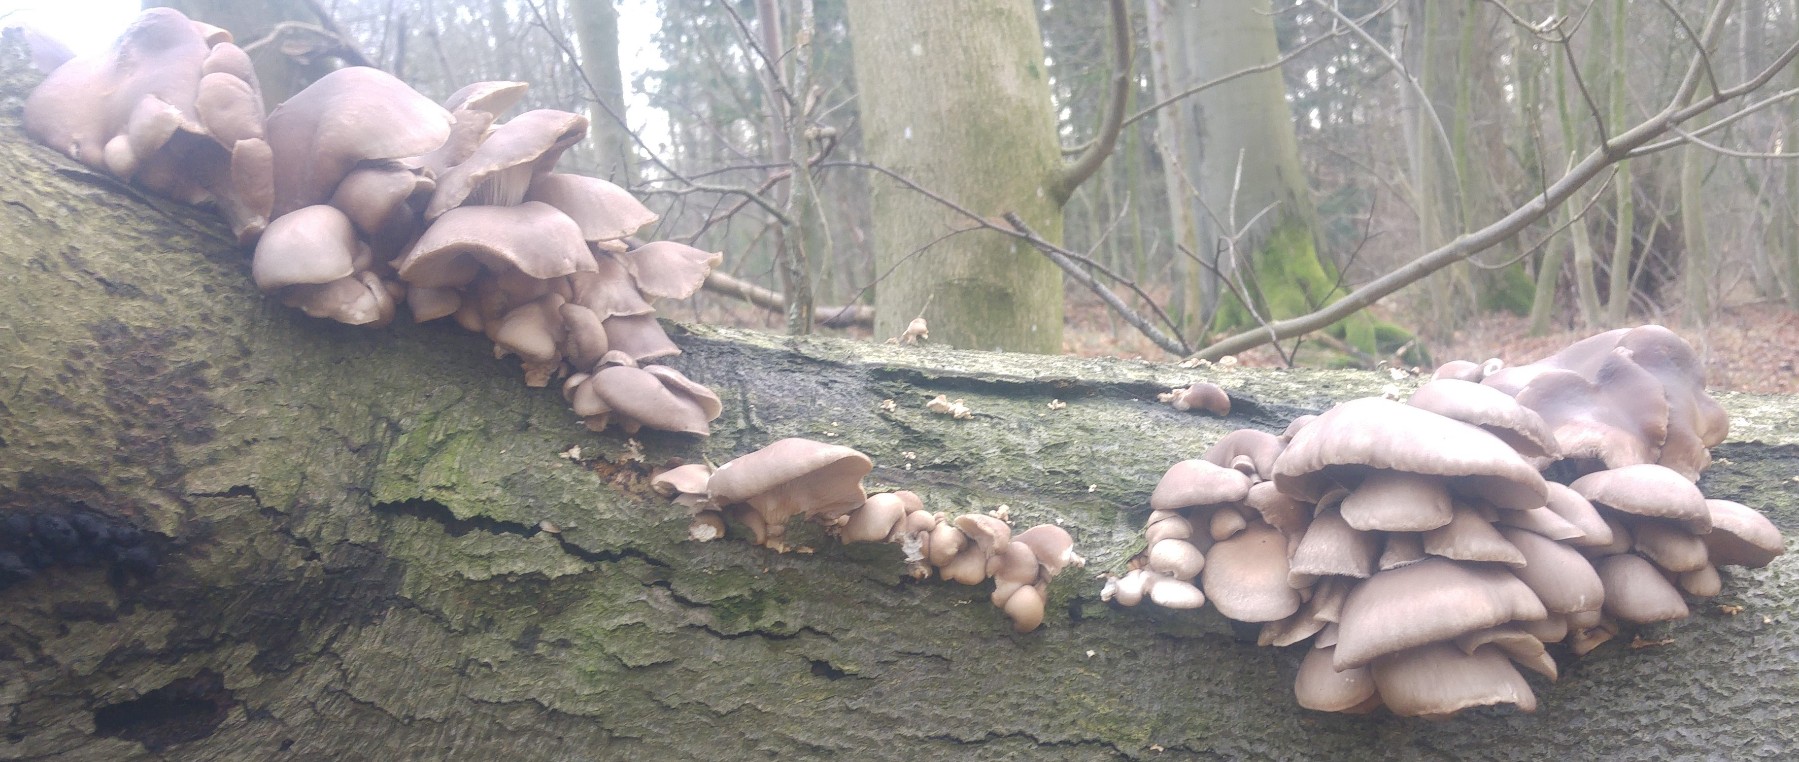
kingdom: Fungi
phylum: Basidiomycota
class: Agaricomycetes
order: Agaricales
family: Pleurotaceae
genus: Pleurotus
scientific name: Pleurotus ostreatus
